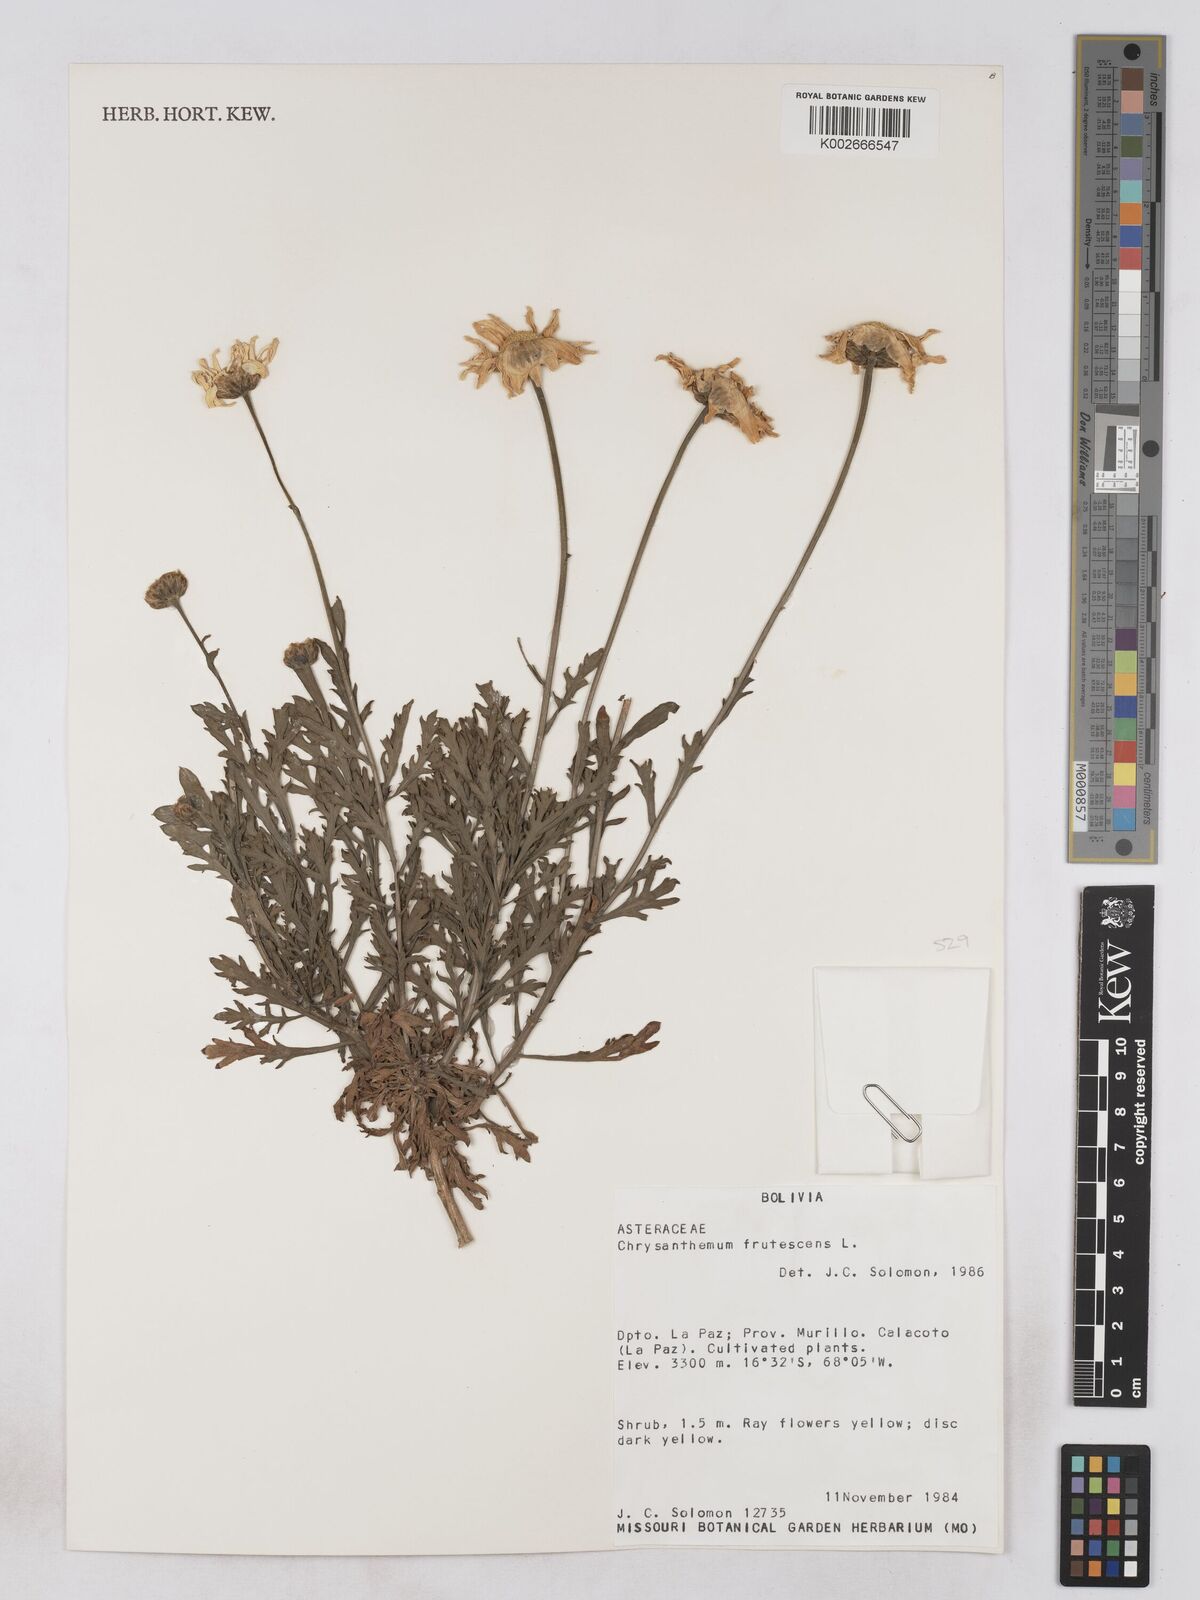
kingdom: Plantae
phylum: Tracheophyta
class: Magnoliopsida
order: Asterales
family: Asteraceae
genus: Argyranthemum
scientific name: Argyranthemum frutescens
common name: Paris daisy
